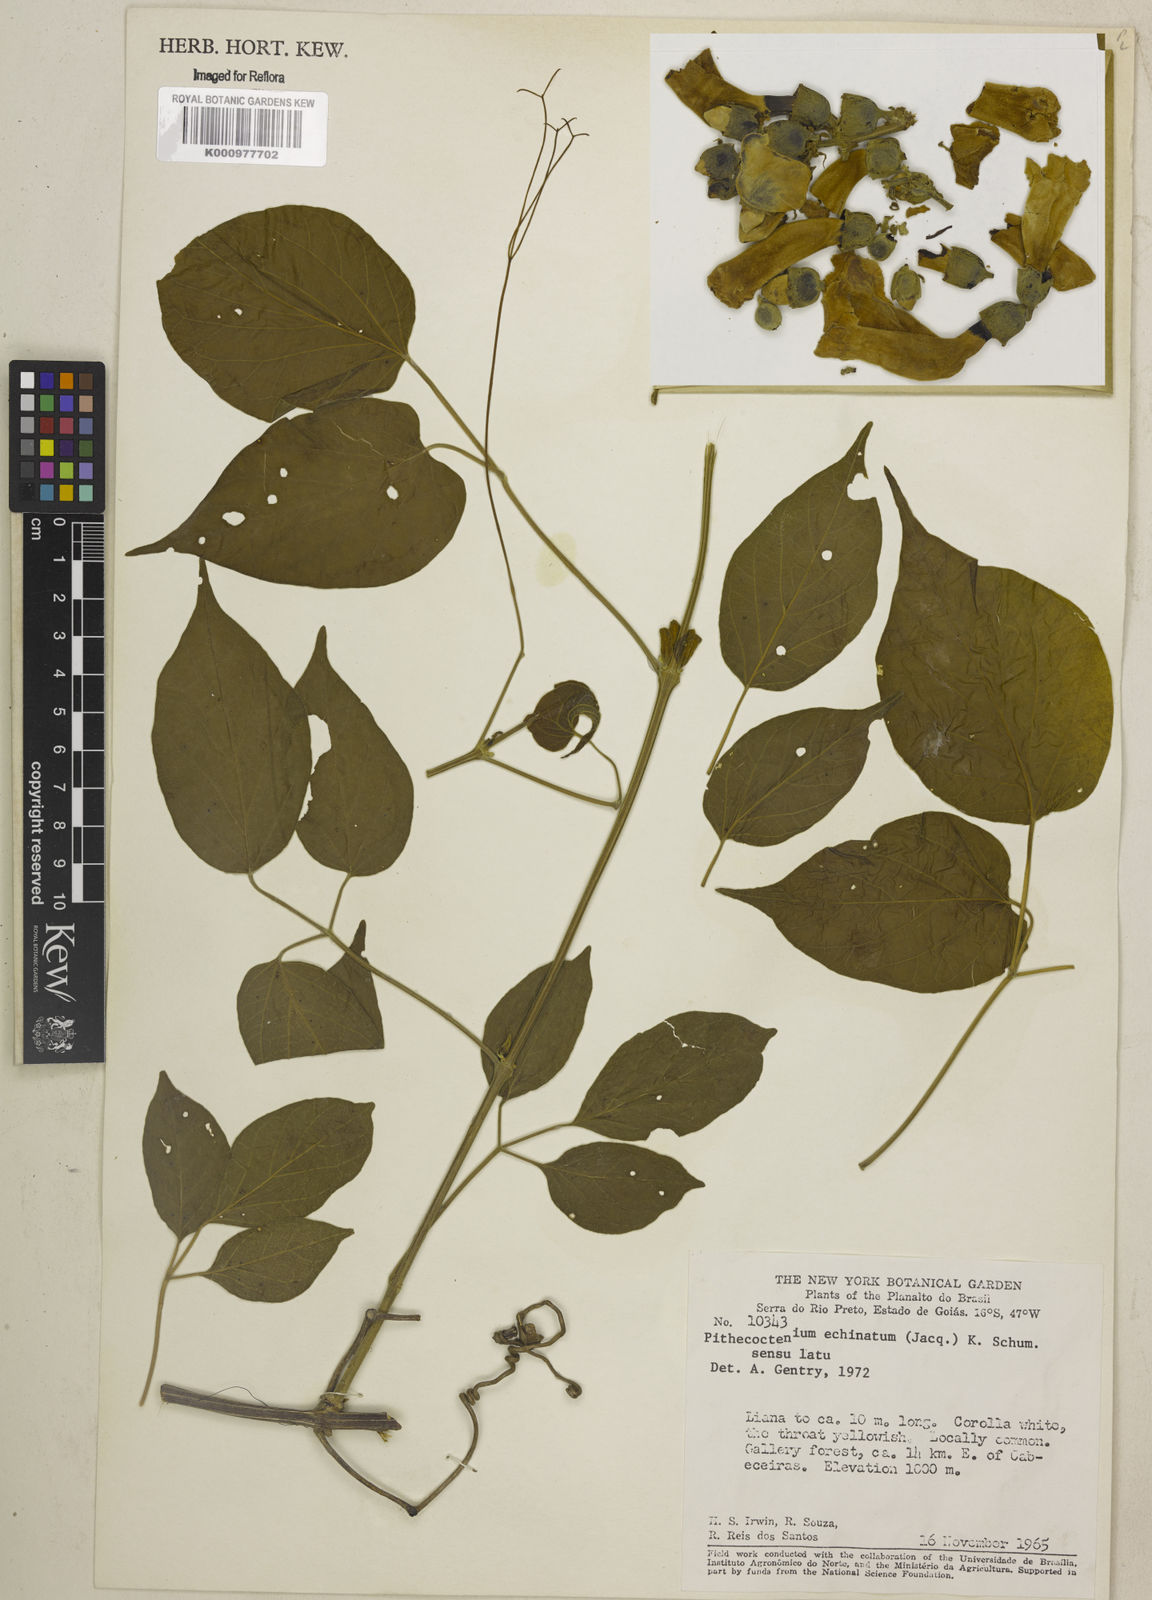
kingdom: Plantae
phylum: Tracheophyta
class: Magnoliopsida
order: Lamiales
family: Bignoniaceae
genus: Amphilophium
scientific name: Amphilophium crucigerum
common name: Monkey comb
